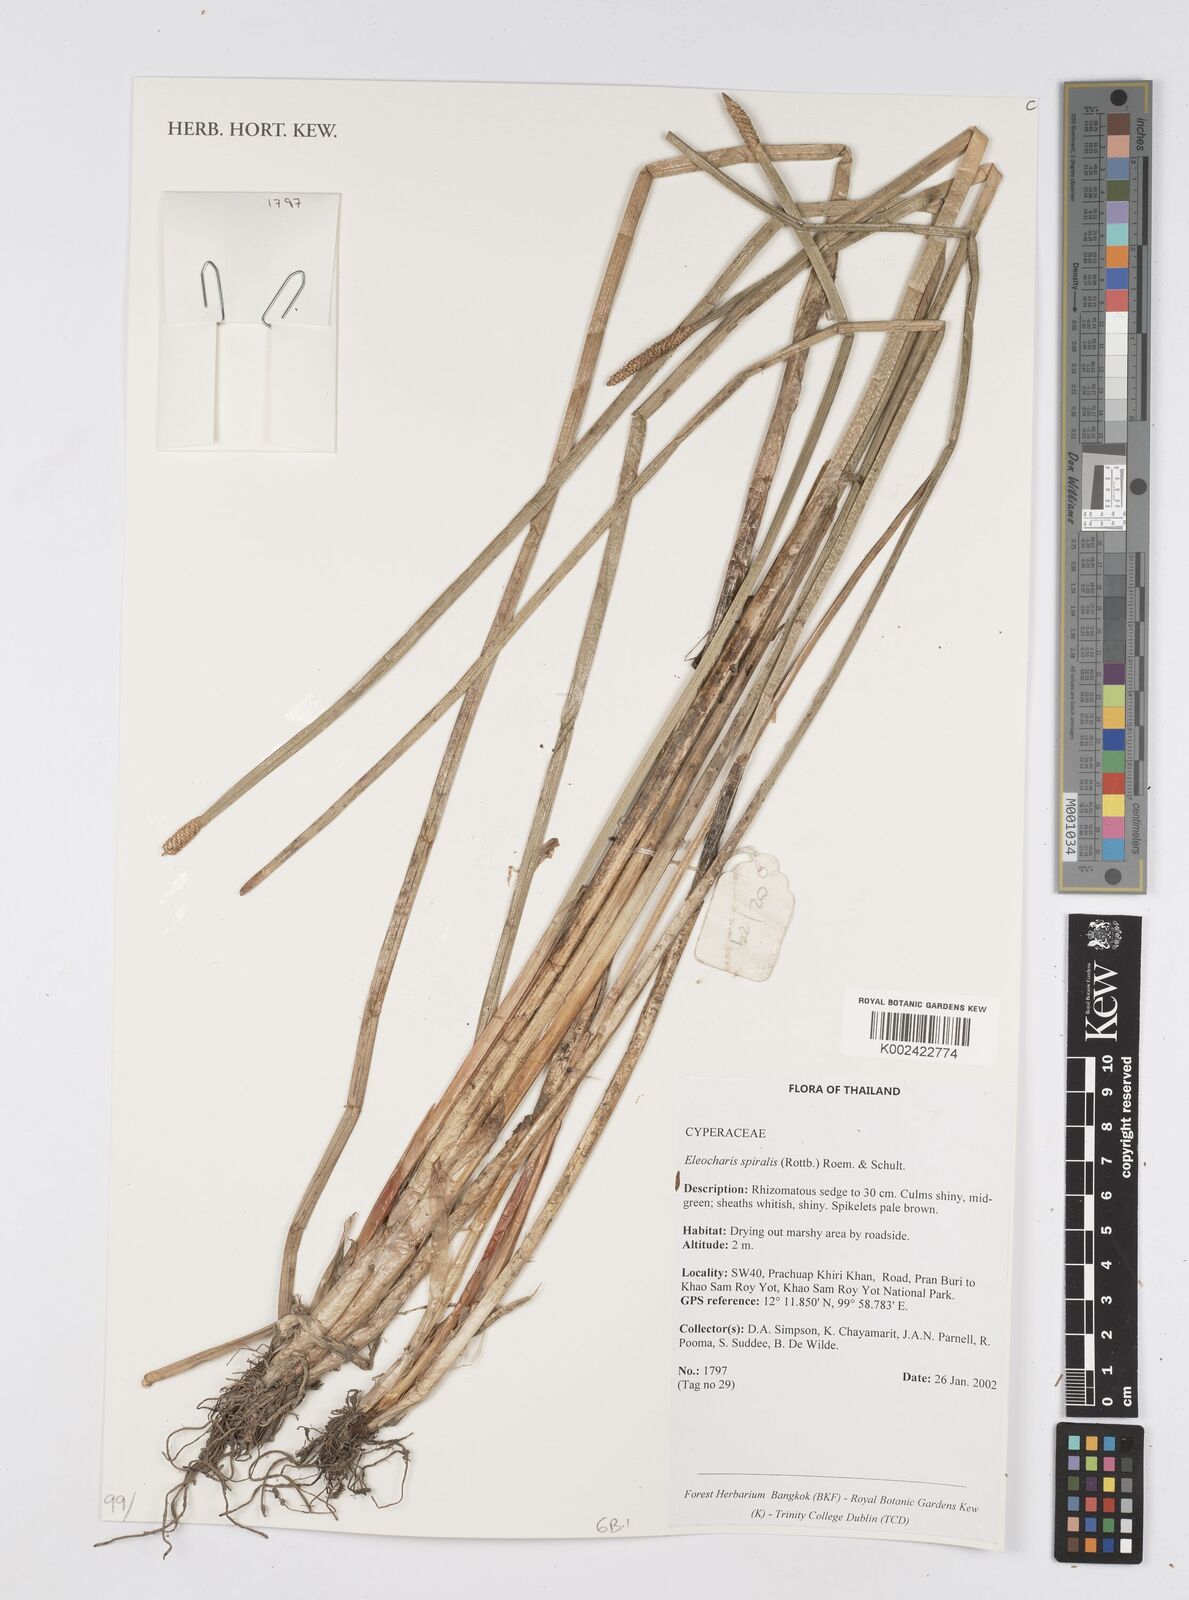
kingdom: Plantae
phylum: Tracheophyta
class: Liliopsida
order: Poales
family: Cyperaceae
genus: Eleocharis
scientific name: Eleocharis spiralis
